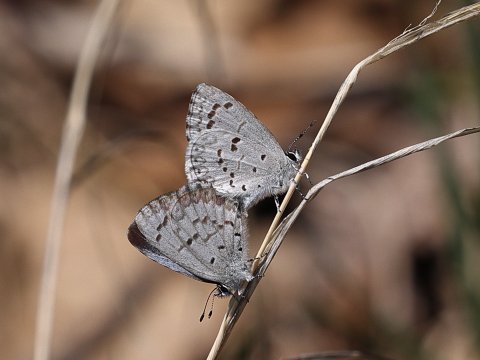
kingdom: Animalia
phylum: Arthropoda
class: Insecta
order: Lepidoptera
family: Lycaenidae
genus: Celastrina
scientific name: Celastrina lucia
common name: Northern Spring Azure
